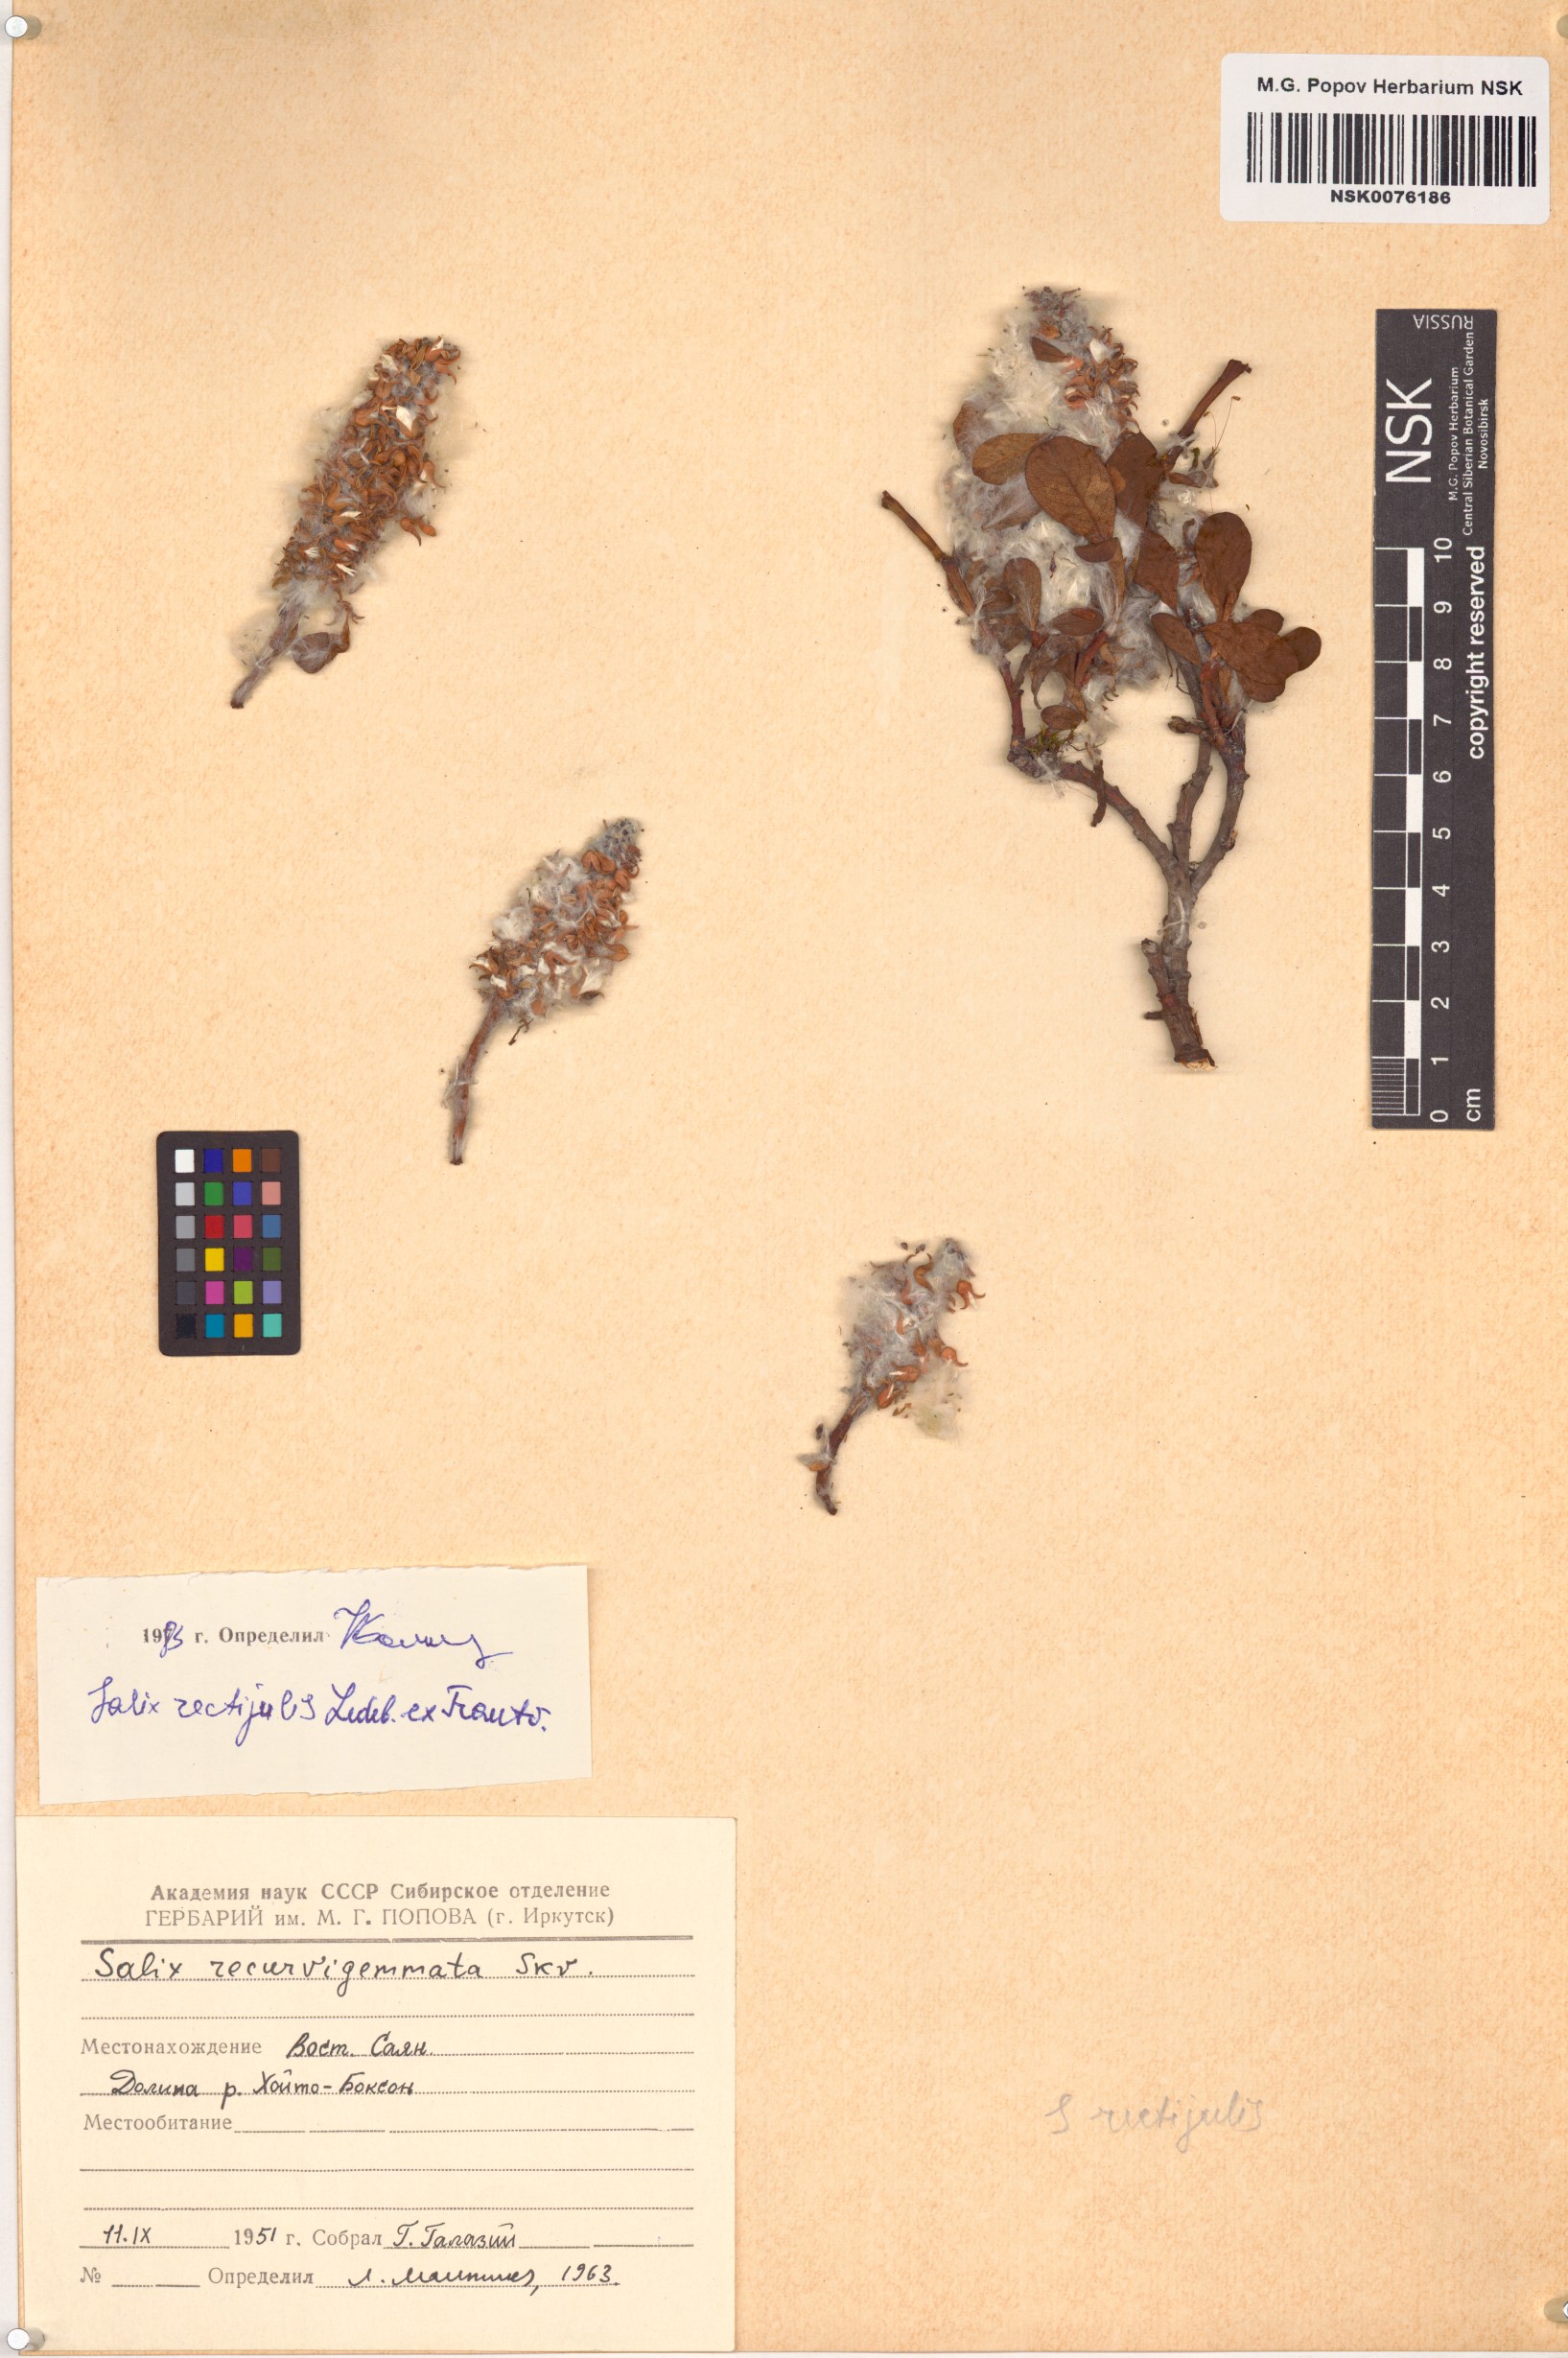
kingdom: Plantae
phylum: Tracheophyta
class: Magnoliopsida
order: Malpighiales
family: Salicaceae
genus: Salix
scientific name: Salix rectijulis
